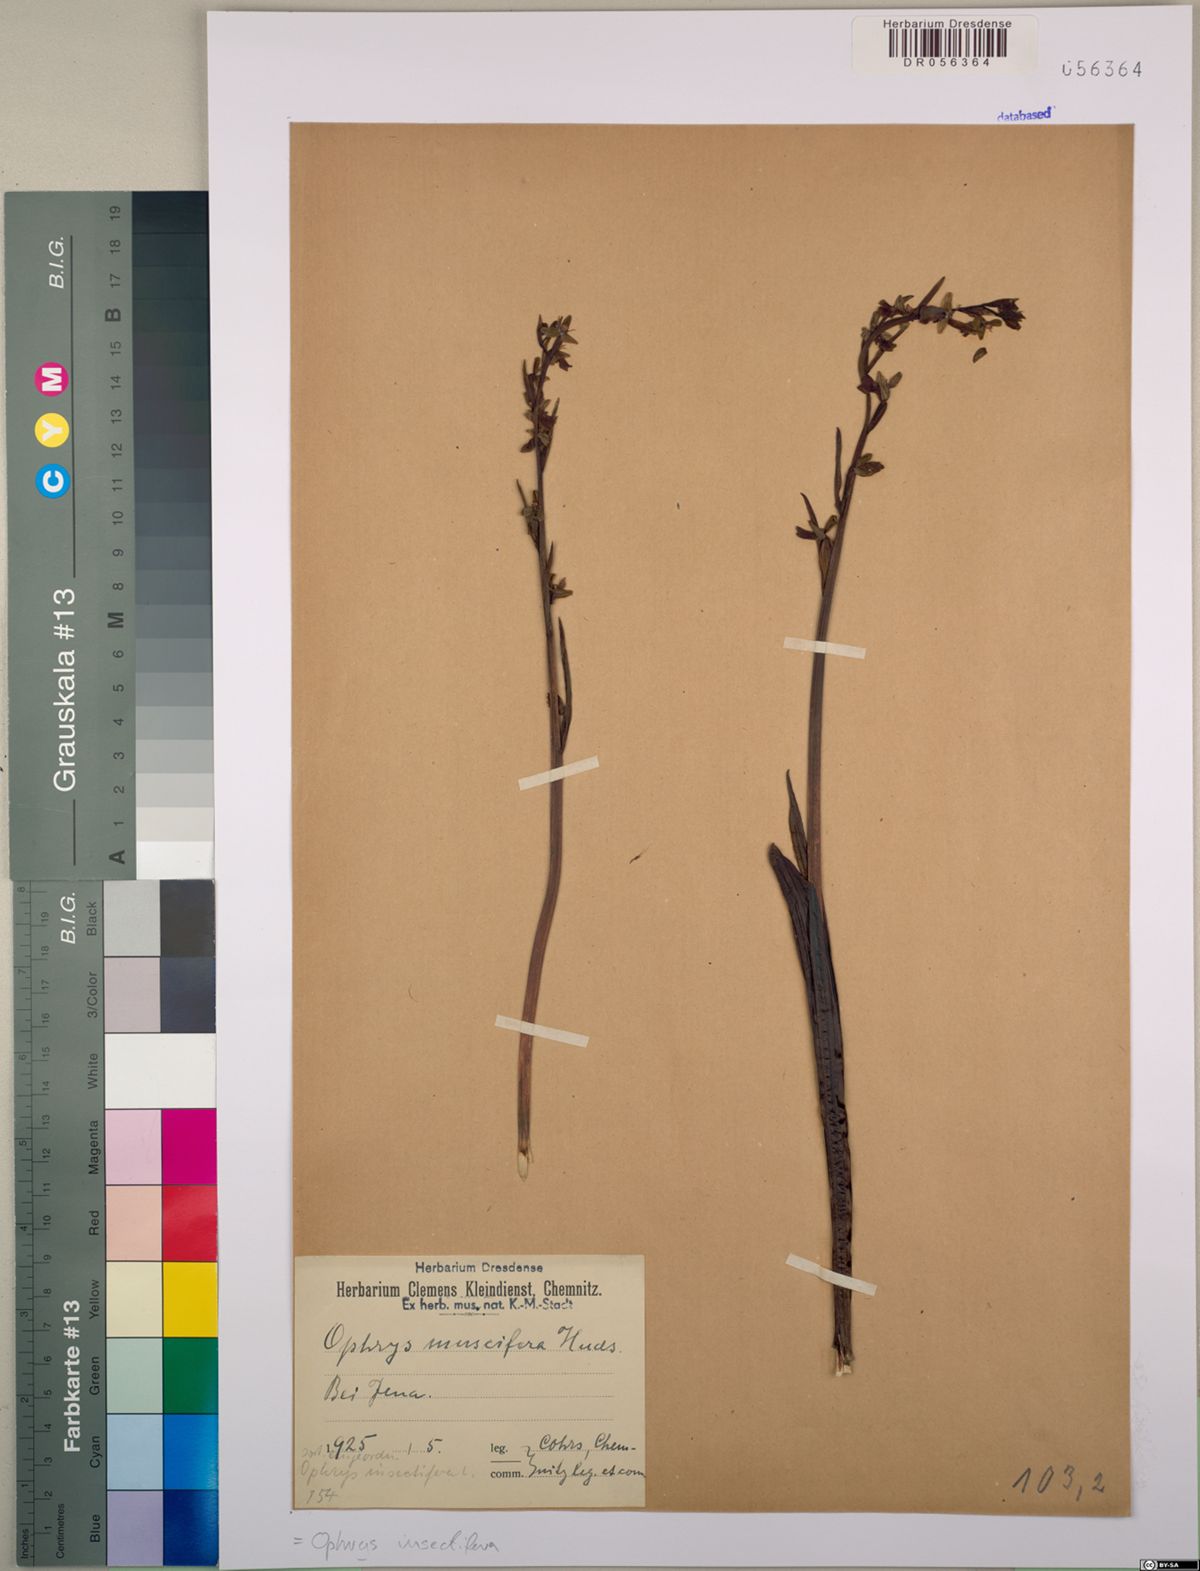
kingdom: Plantae
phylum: Tracheophyta
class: Liliopsida
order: Asparagales
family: Orchidaceae
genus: Ophrys
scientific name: Ophrys insectifera
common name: Fly orchid
